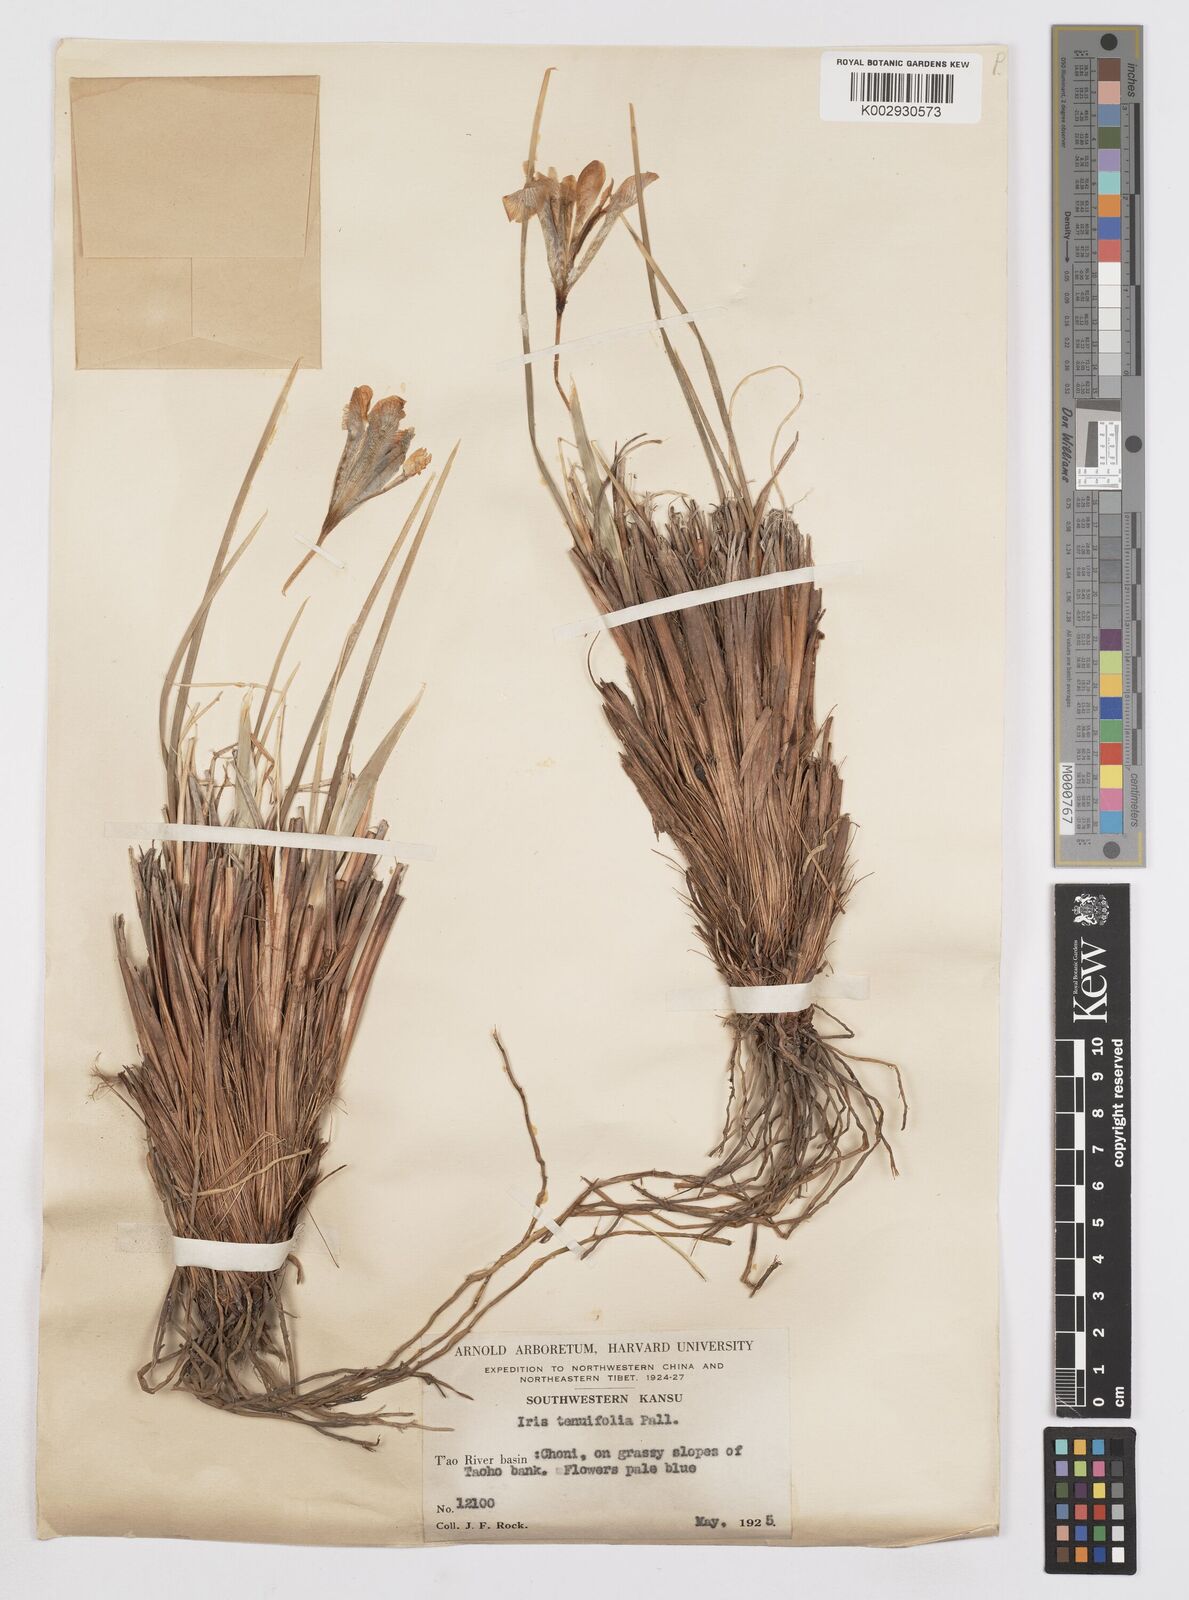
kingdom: Plantae
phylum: Tracheophyta
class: Liliopsida
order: Asparagales
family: Iridaceae
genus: Iris
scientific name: Iris tenuifolia
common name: Slender-leaf iris
